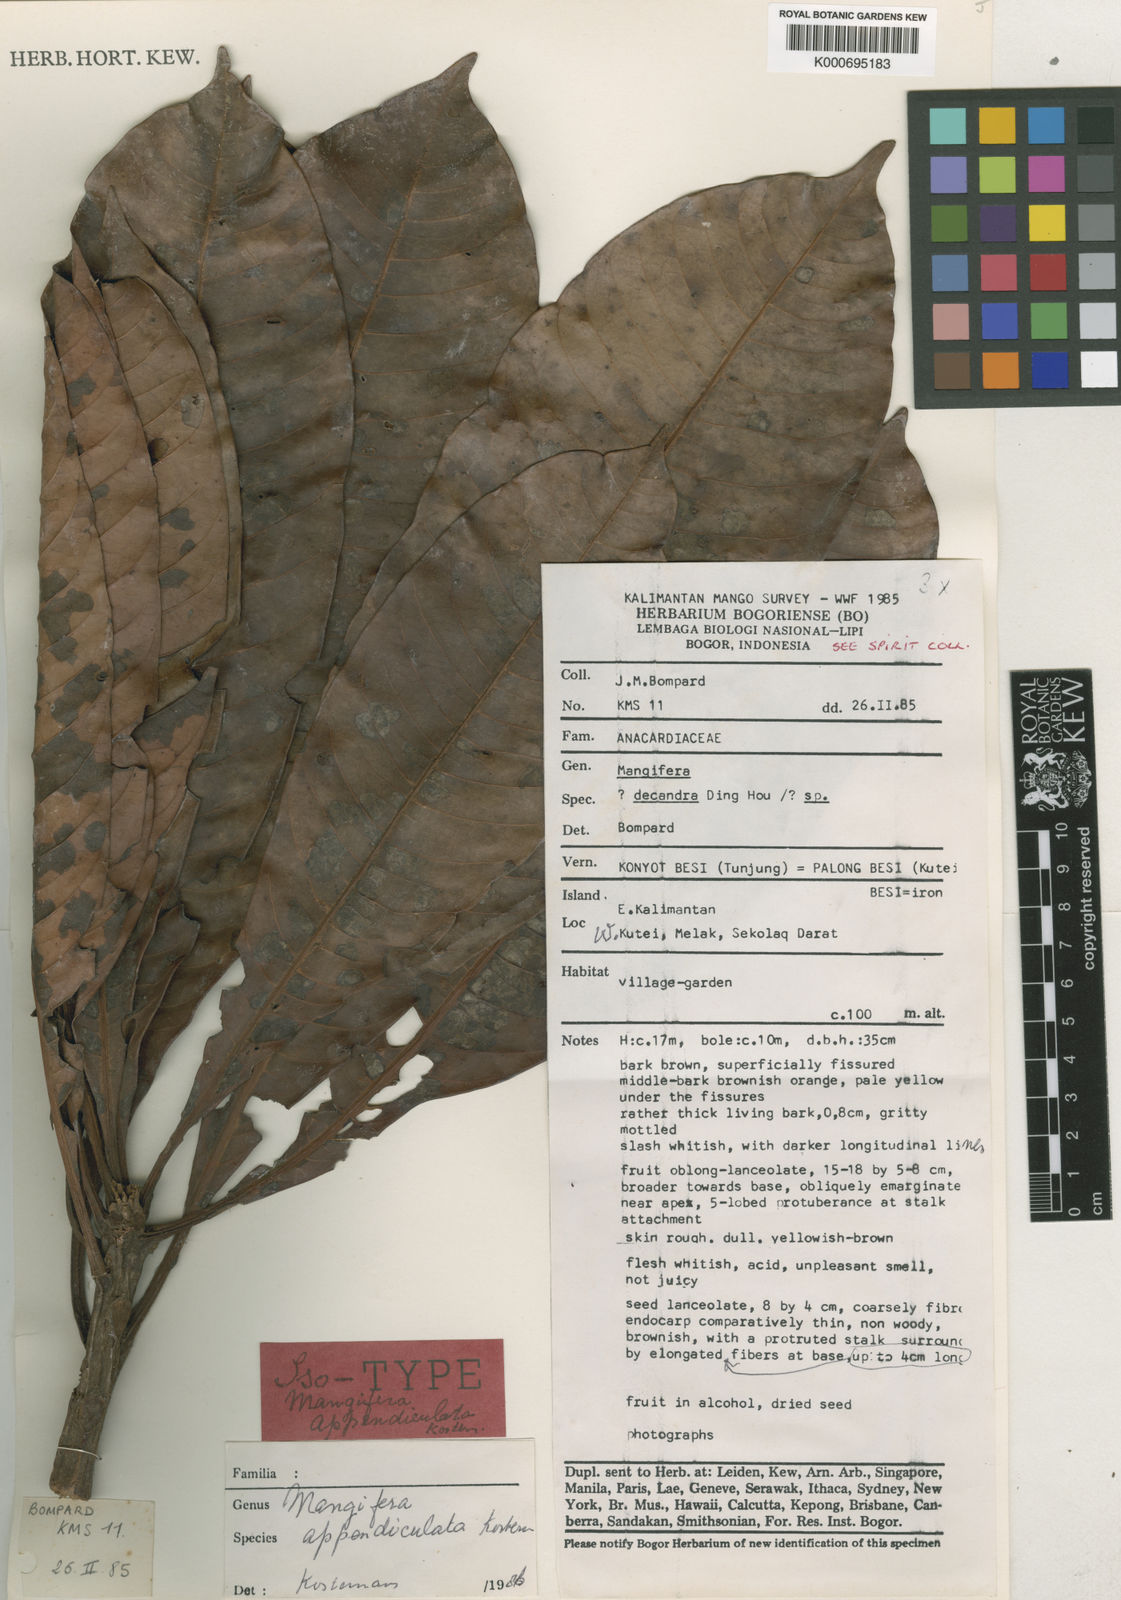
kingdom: Plantae
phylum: Tracheophyta
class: Magnoliopsida
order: Sapindales
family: Anacardiaceae
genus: Mangifera
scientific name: Mangifera
